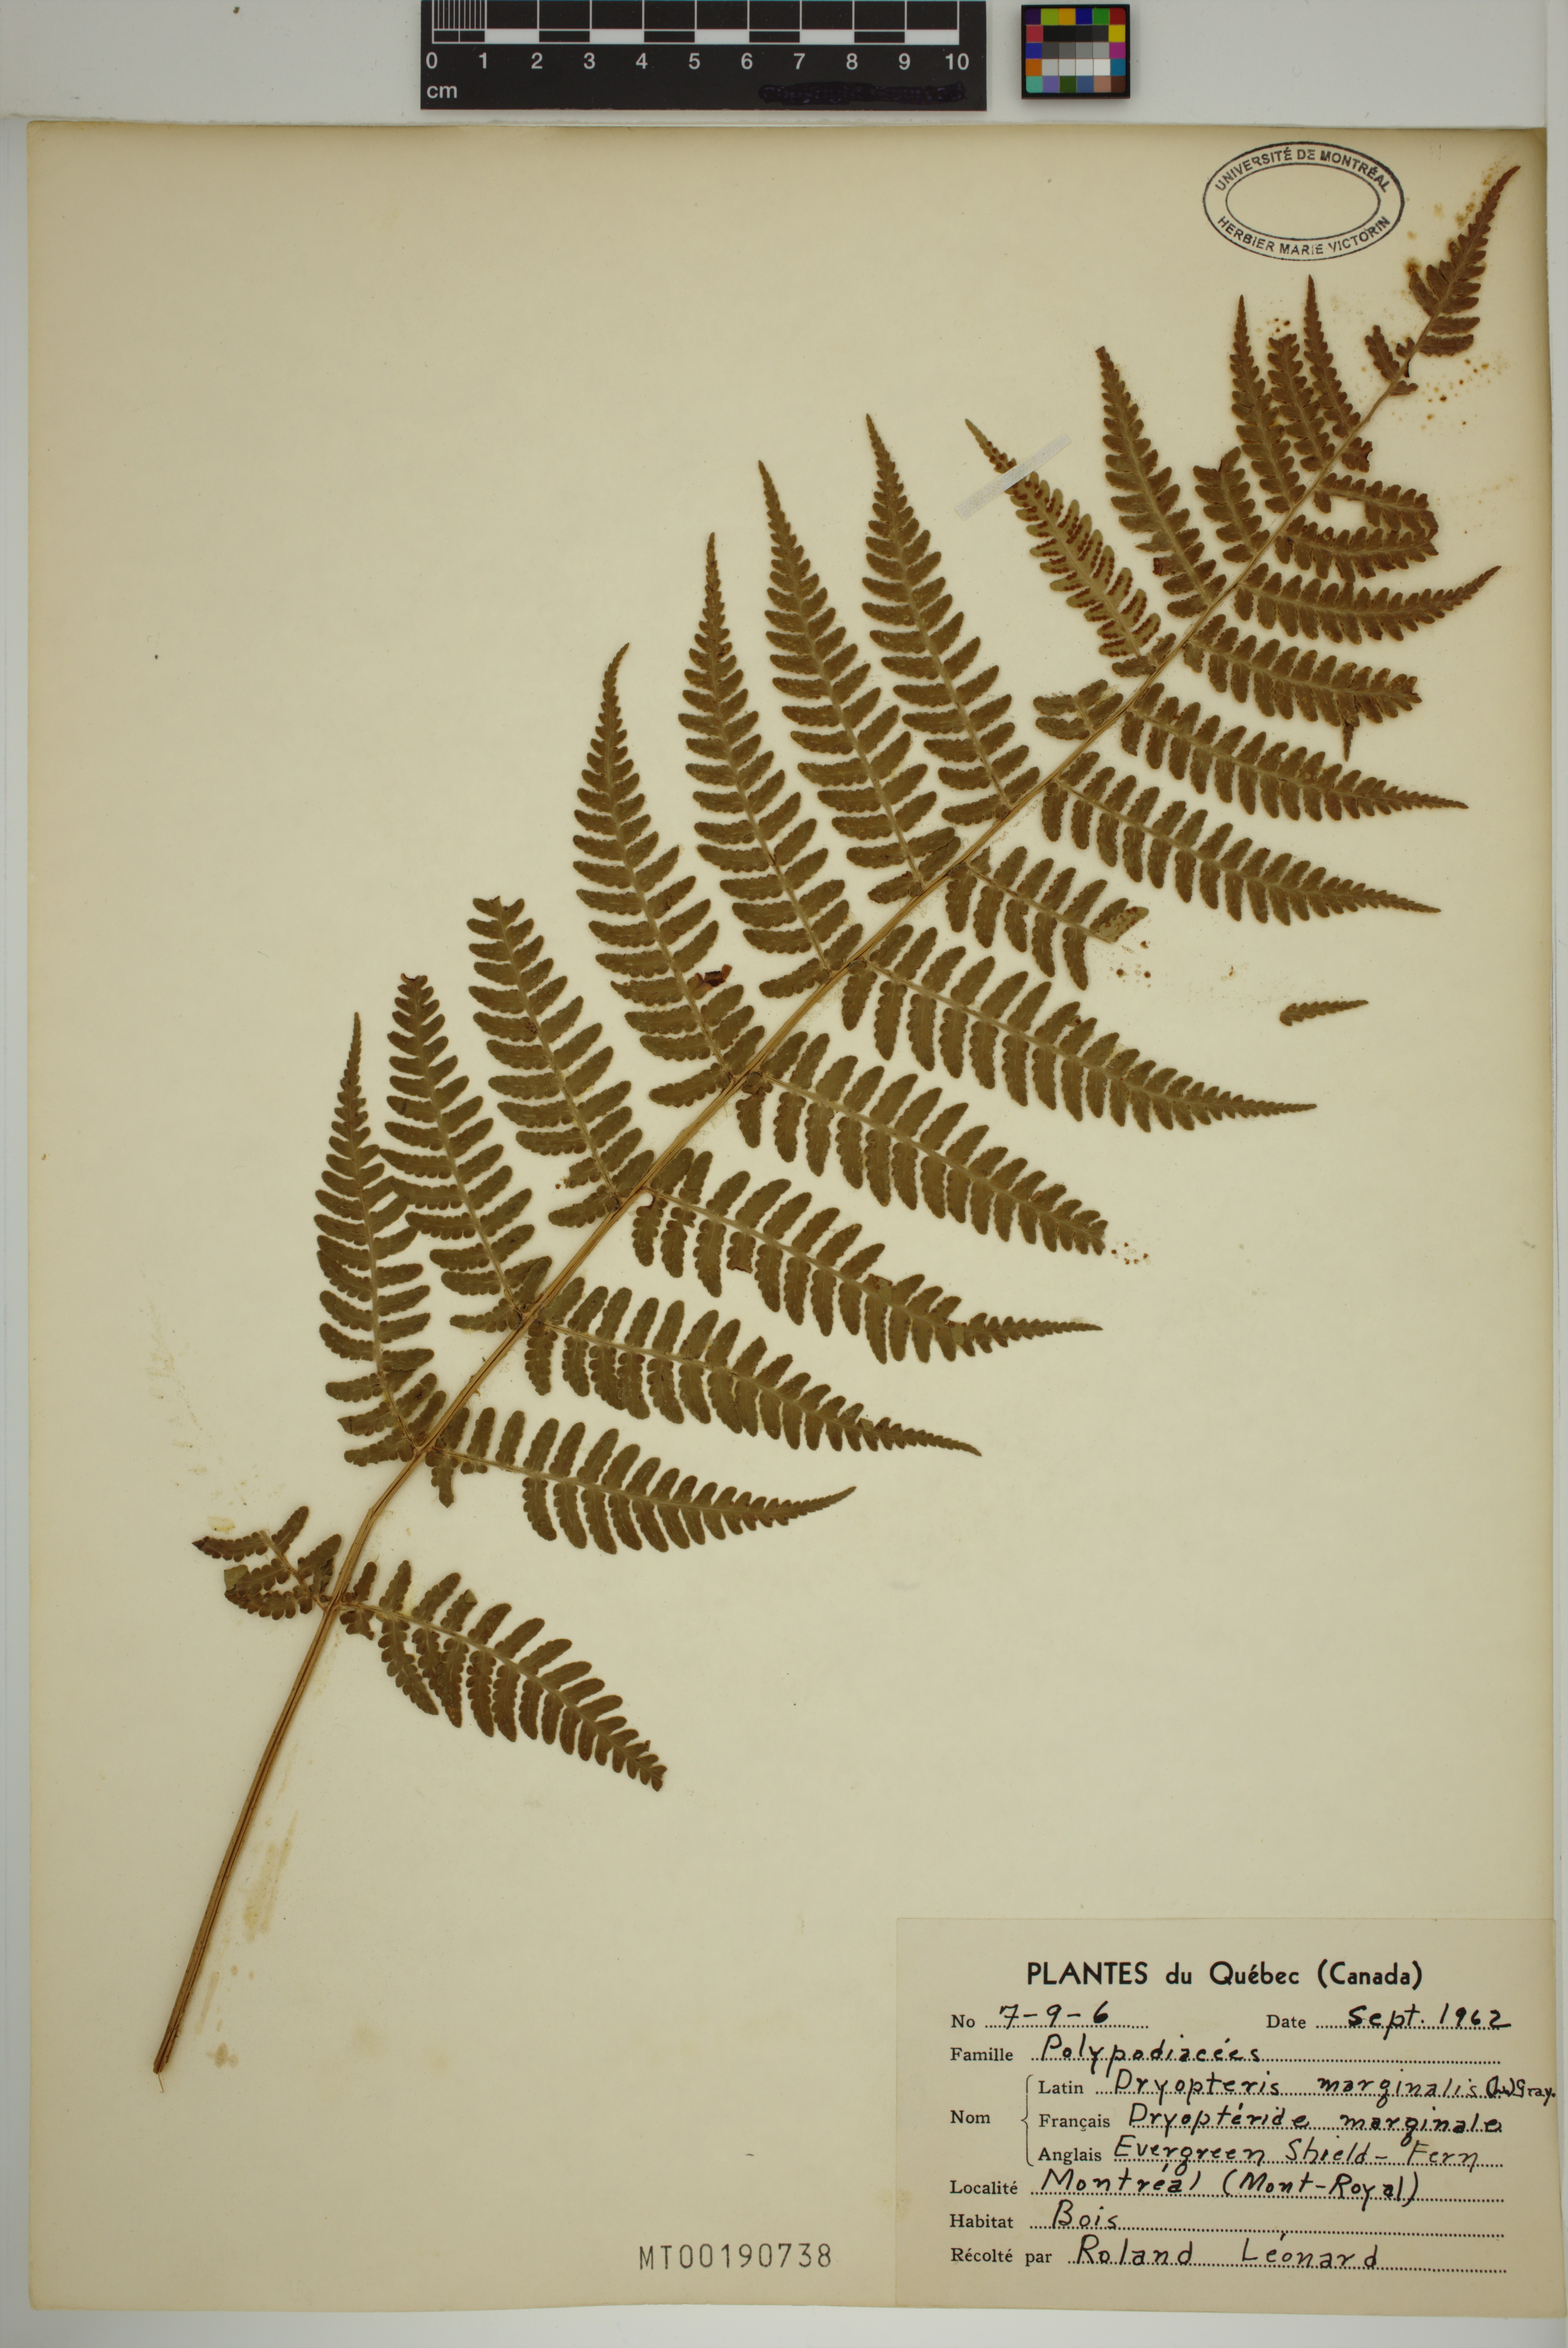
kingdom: Plantae
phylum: Tracheophyta
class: Polypodiopsida
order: Polypodiales
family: Dryopteridaceae
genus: Dryopteris
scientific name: Dryopteris marginalis
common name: Marginal wood fern
